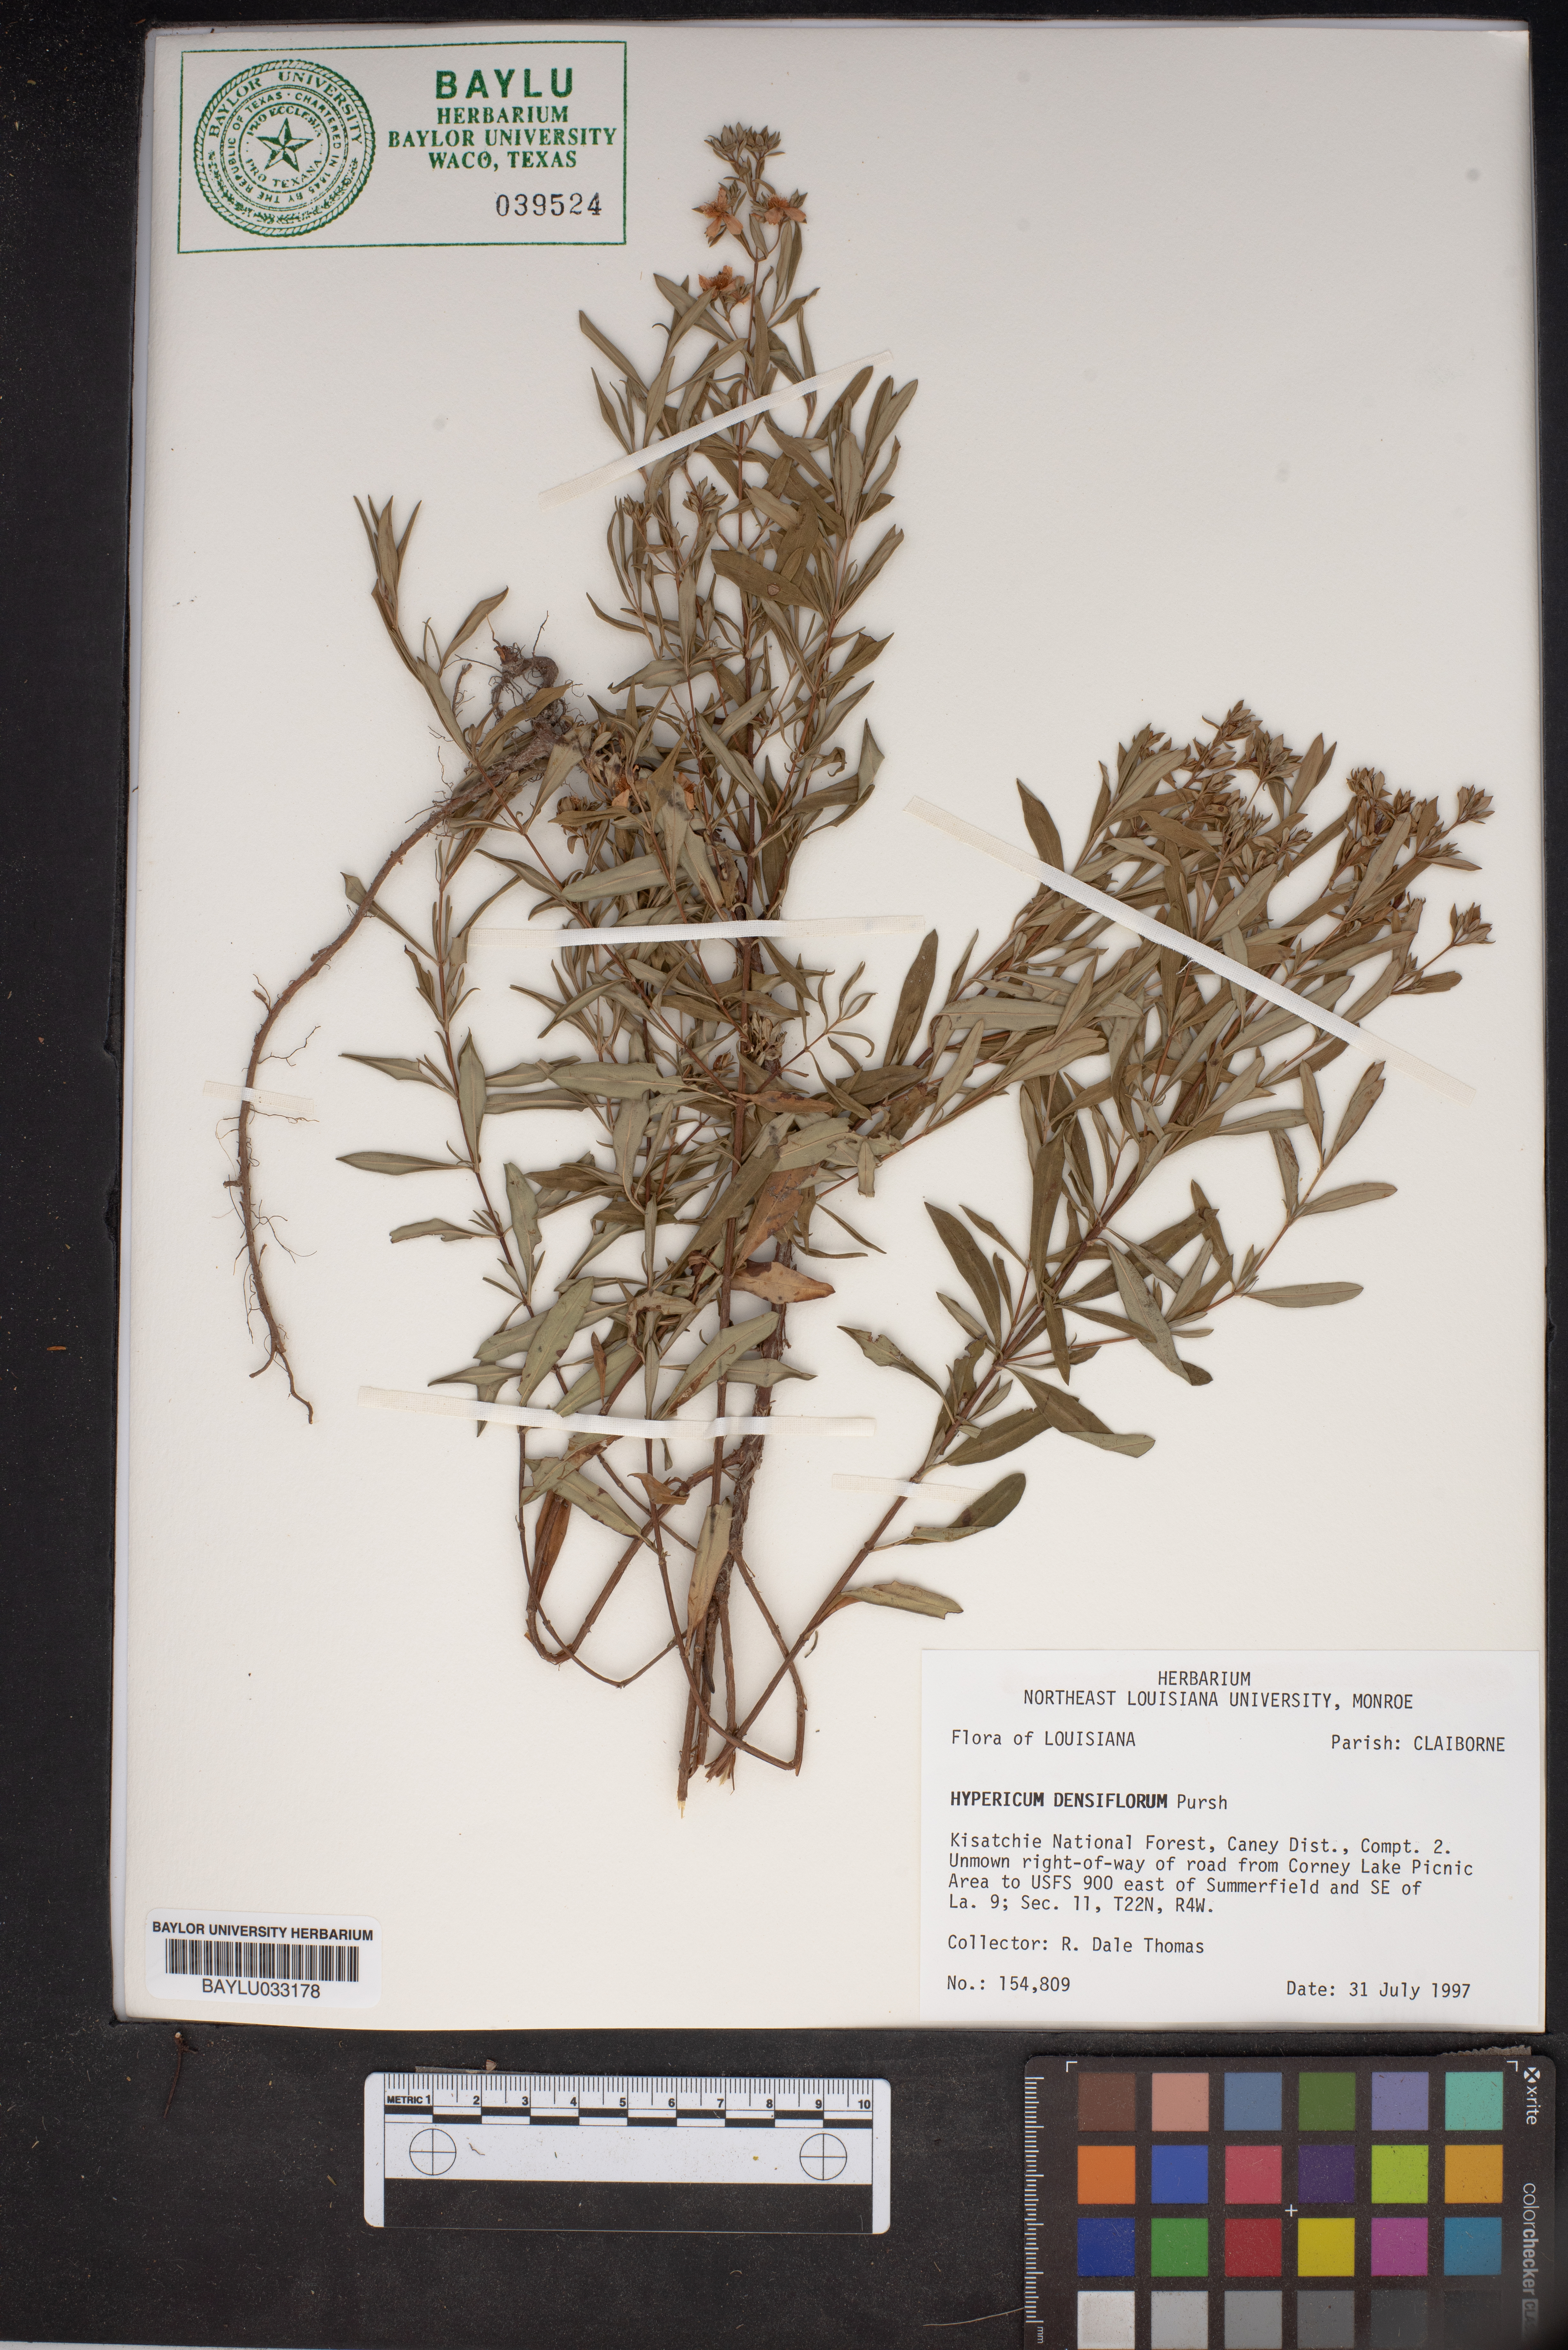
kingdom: Plantae
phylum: Tracheophyta
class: Magnoliopsida
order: Malpighiales
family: Hypericaceae
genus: Hypericum
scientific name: Hypericum densiflorum
